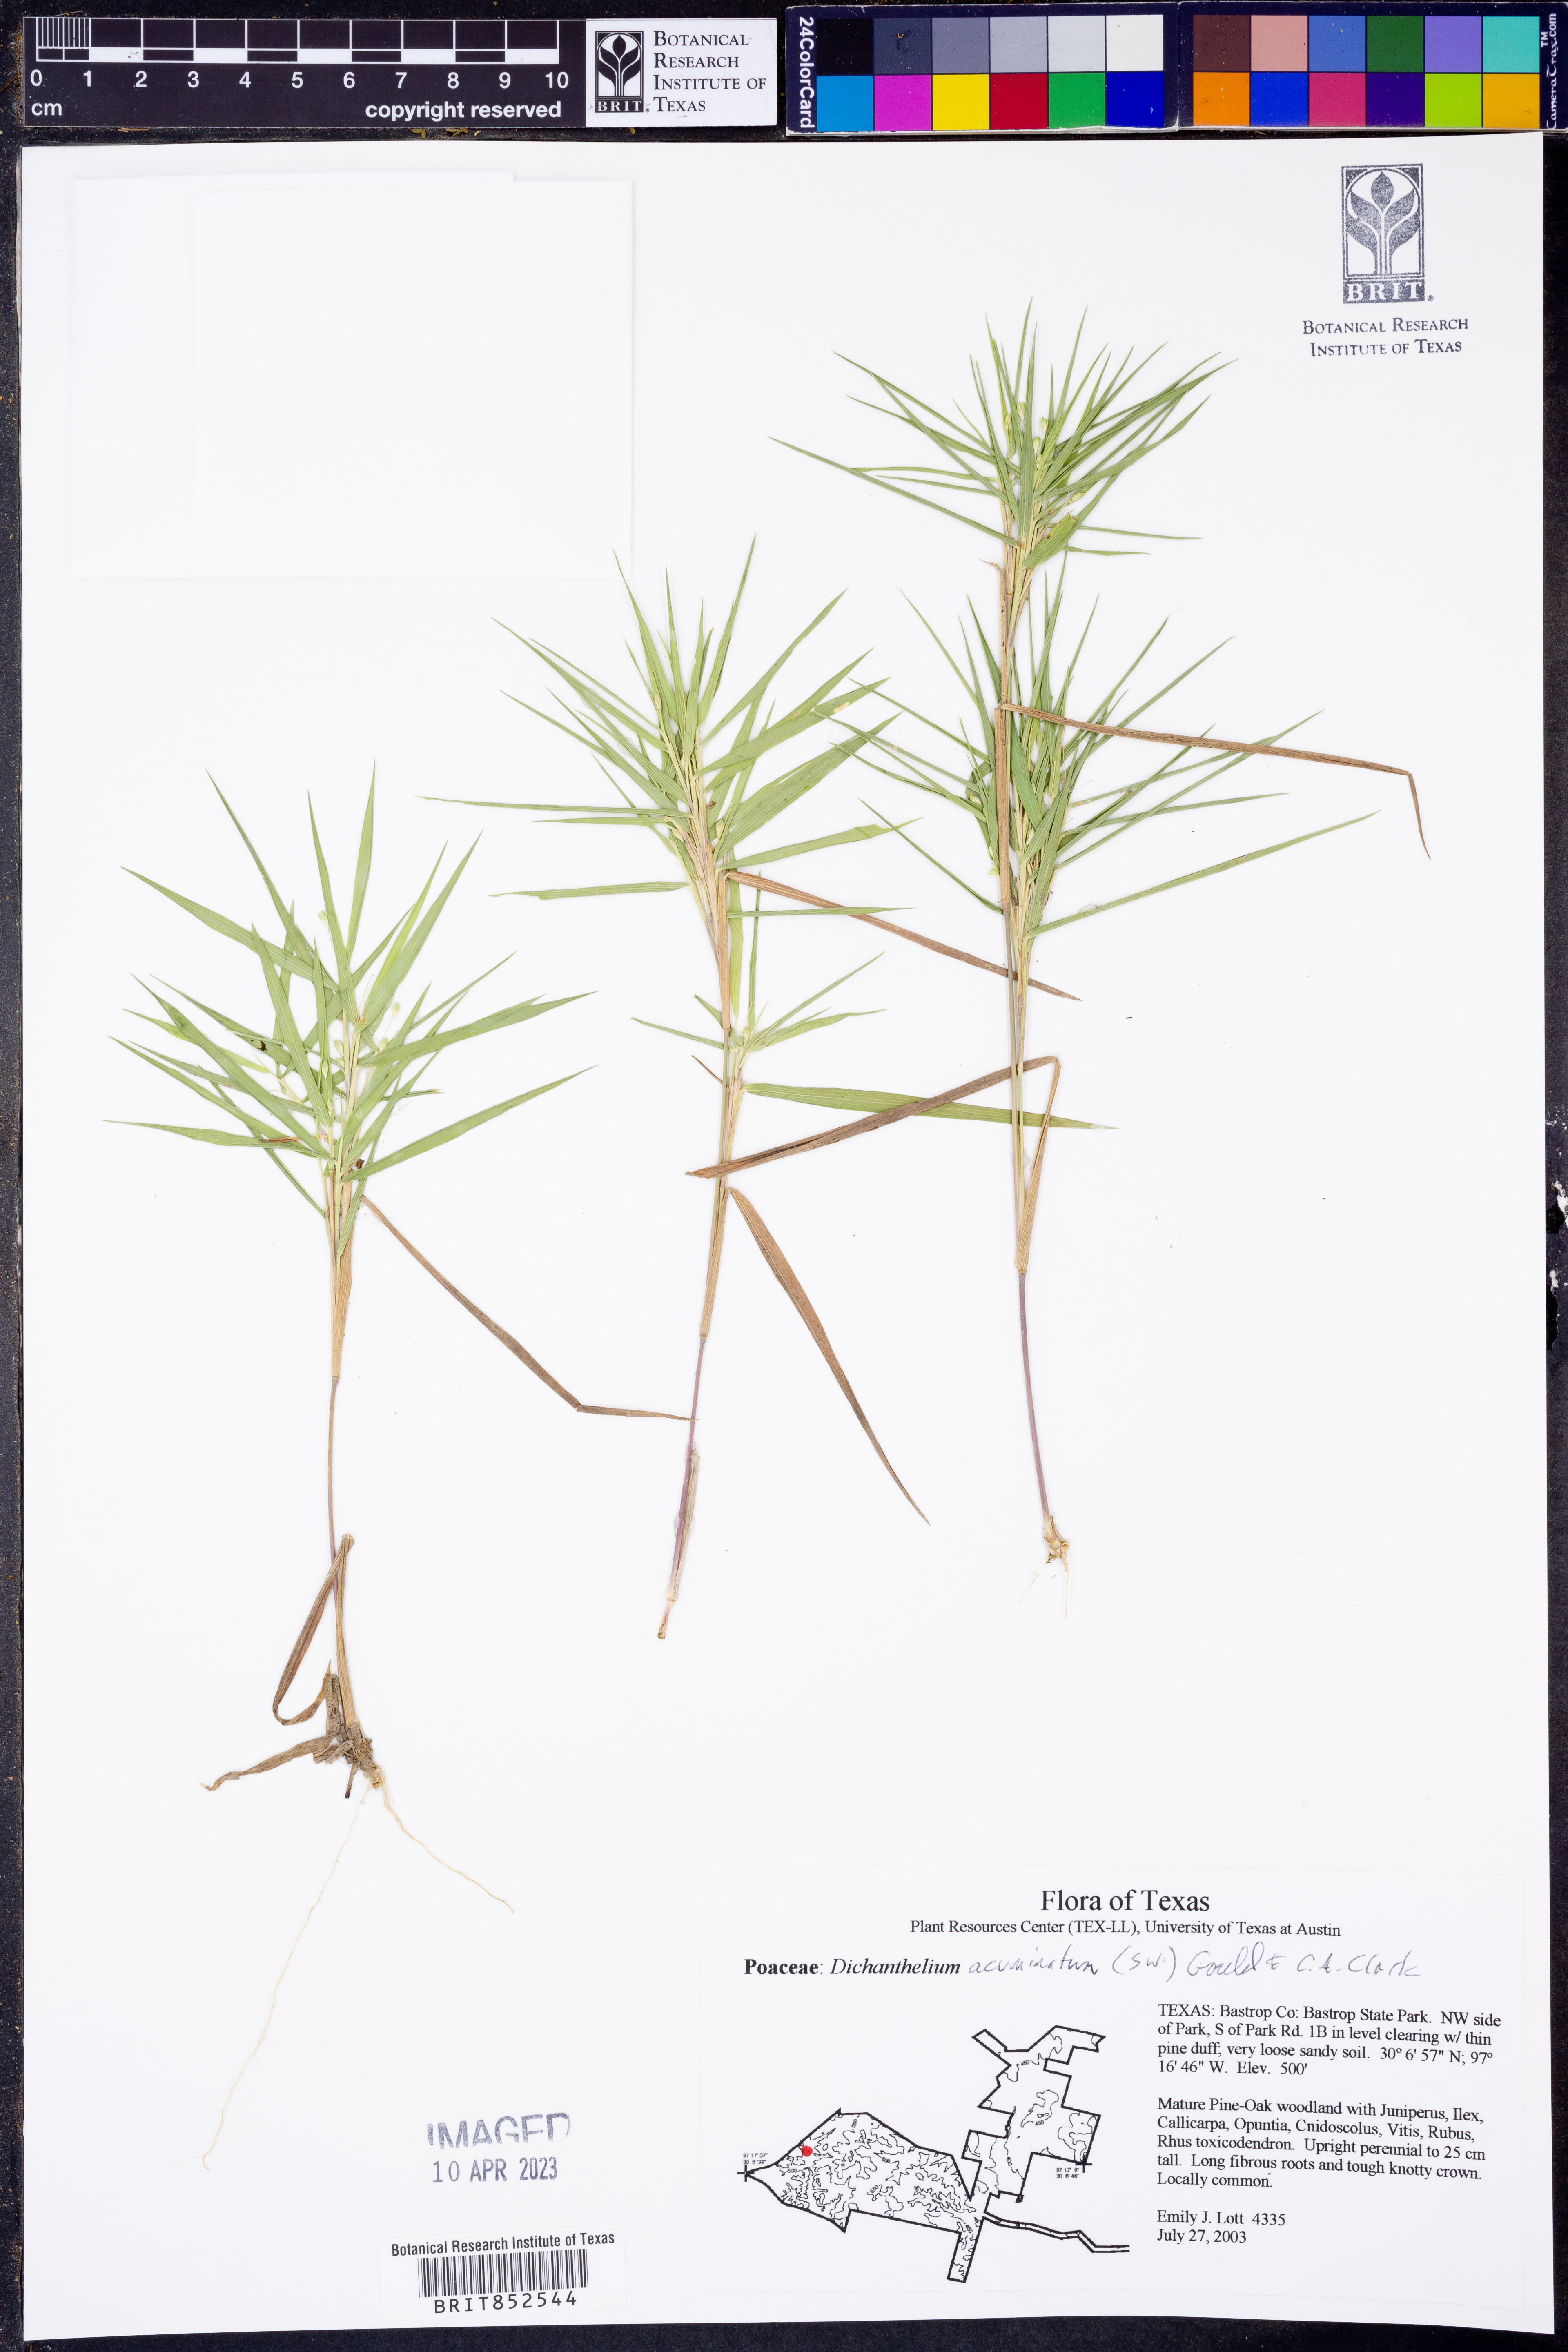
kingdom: Plantae
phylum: Tracheophyta
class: Liliopsida
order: Poales
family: Poaceae
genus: Dichanthelium
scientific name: Dichanthelium acuminatum
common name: Hairy panic grass
